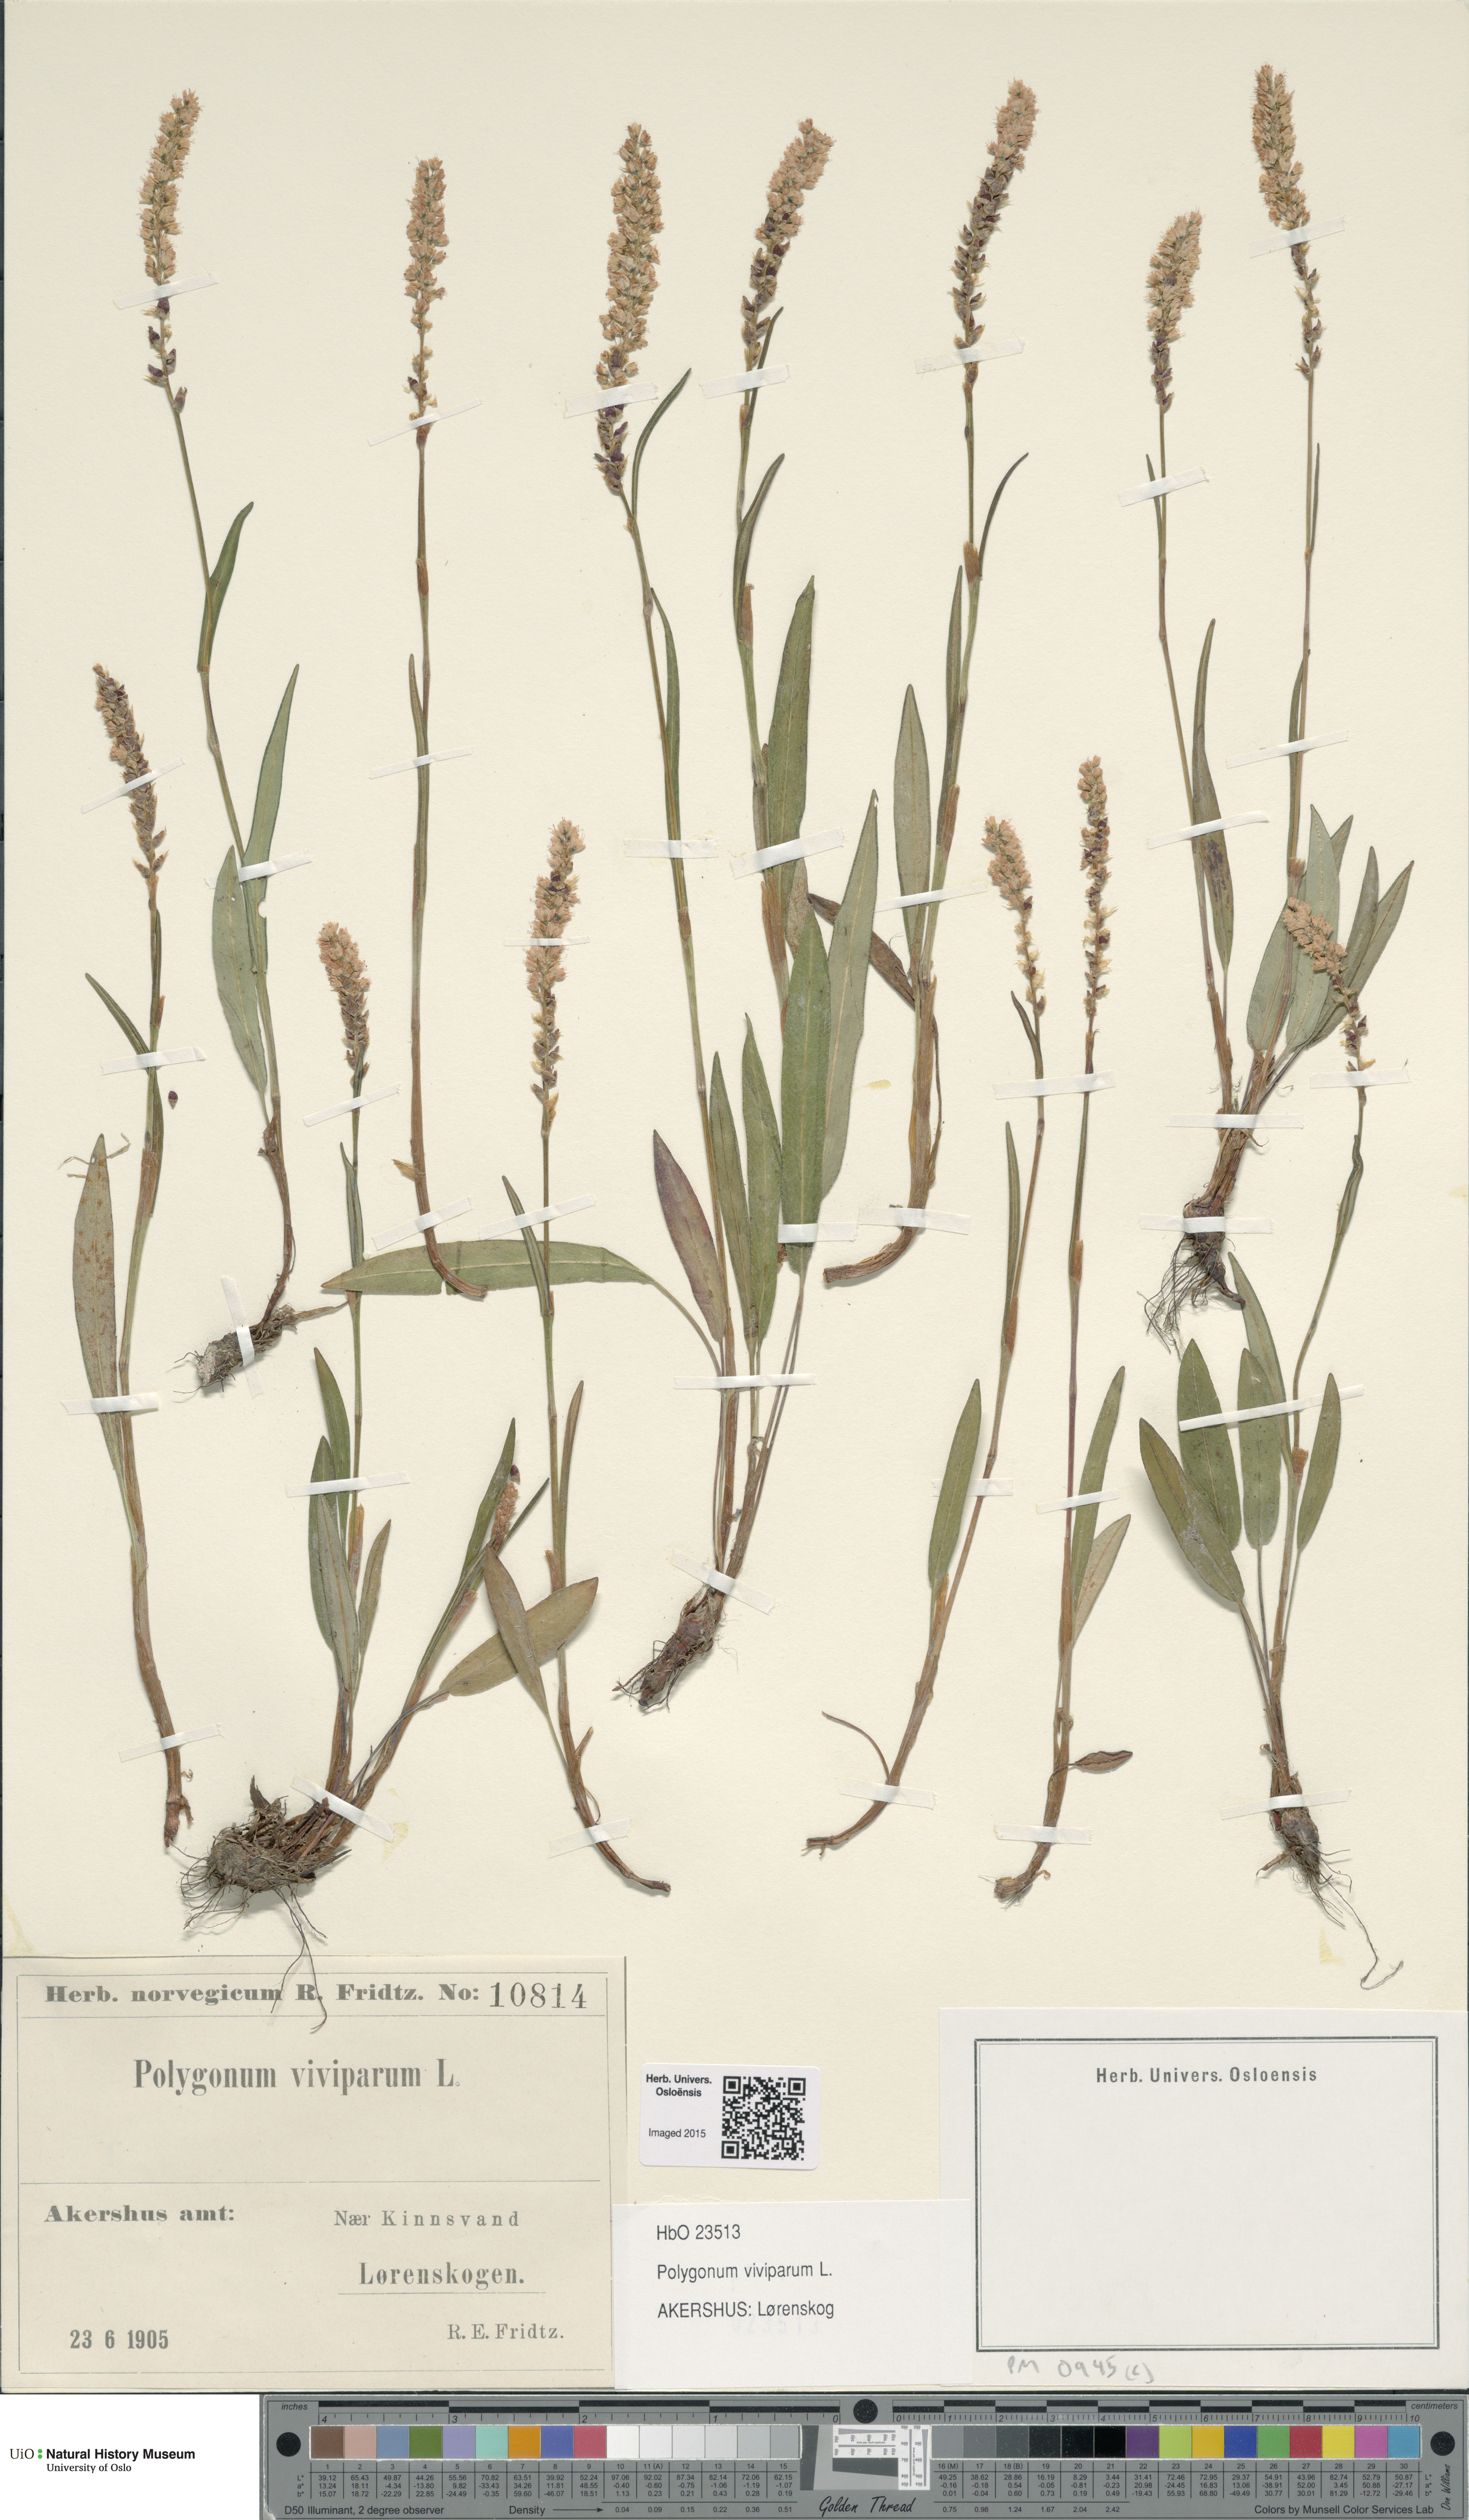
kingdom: Plantae
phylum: Tracheophyta
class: Magnoliopsida
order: Caryophyllales
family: Polygonaceae
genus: Bistorta
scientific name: Bistorta vivipara
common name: Alpine bistort
